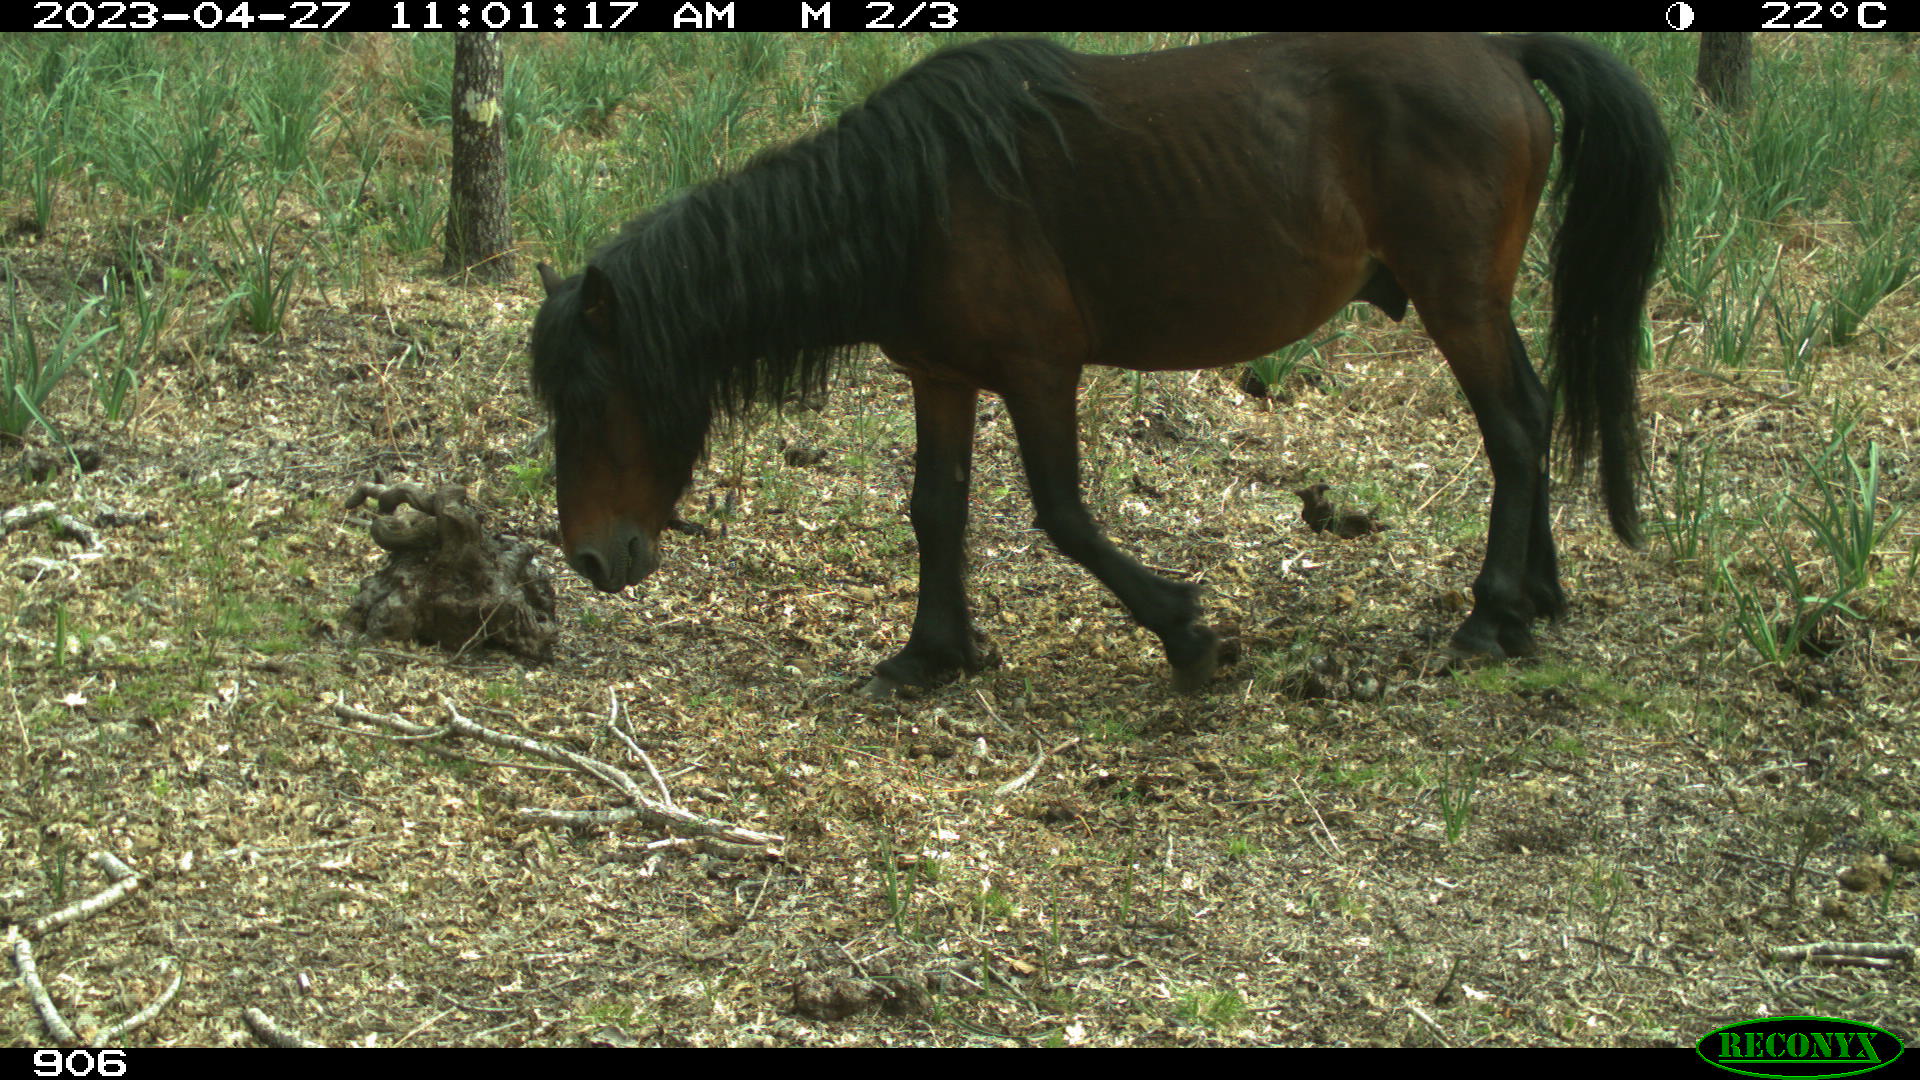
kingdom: Animalia
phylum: Chordata
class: Mammalia
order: Perissodactyla
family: Equidae
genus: Equus
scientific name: Equus caballus
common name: Horse
